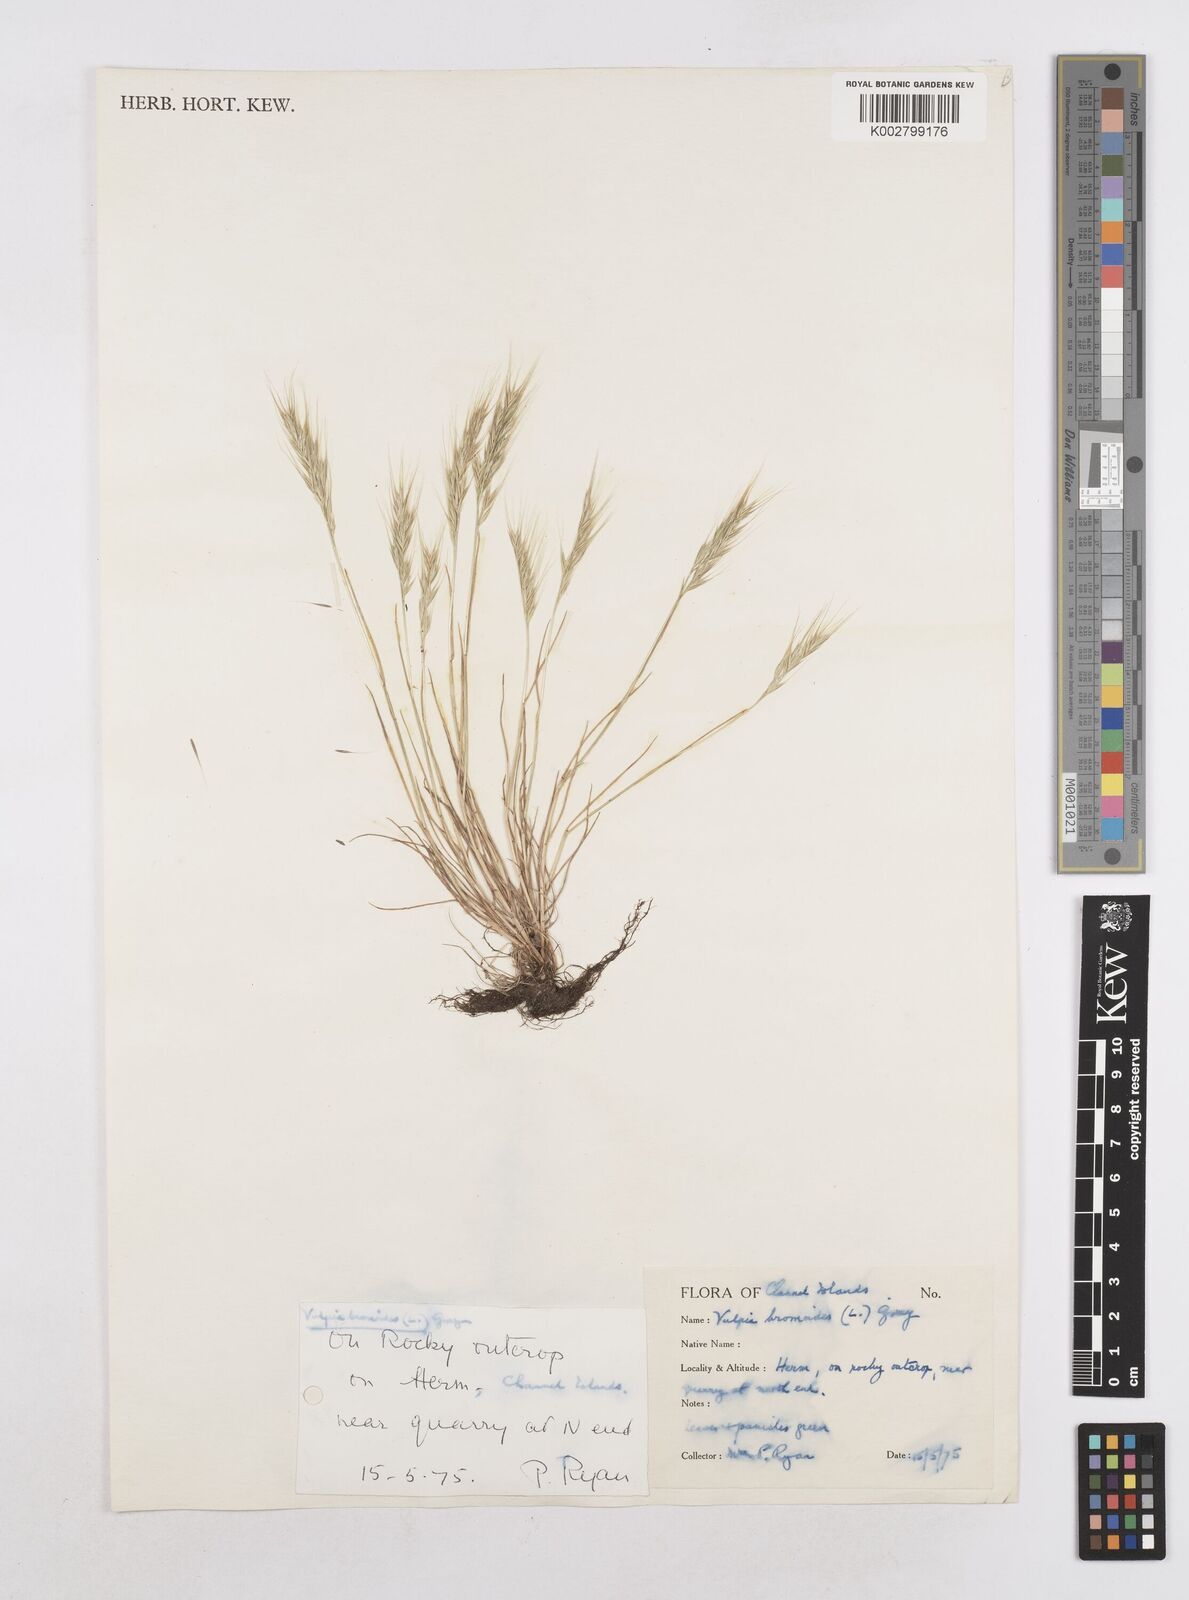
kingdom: Plantae
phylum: Tracheophyta
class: Liliopsida
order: Poales
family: Poaceae
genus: Festuca
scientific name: Festuca bromoides
